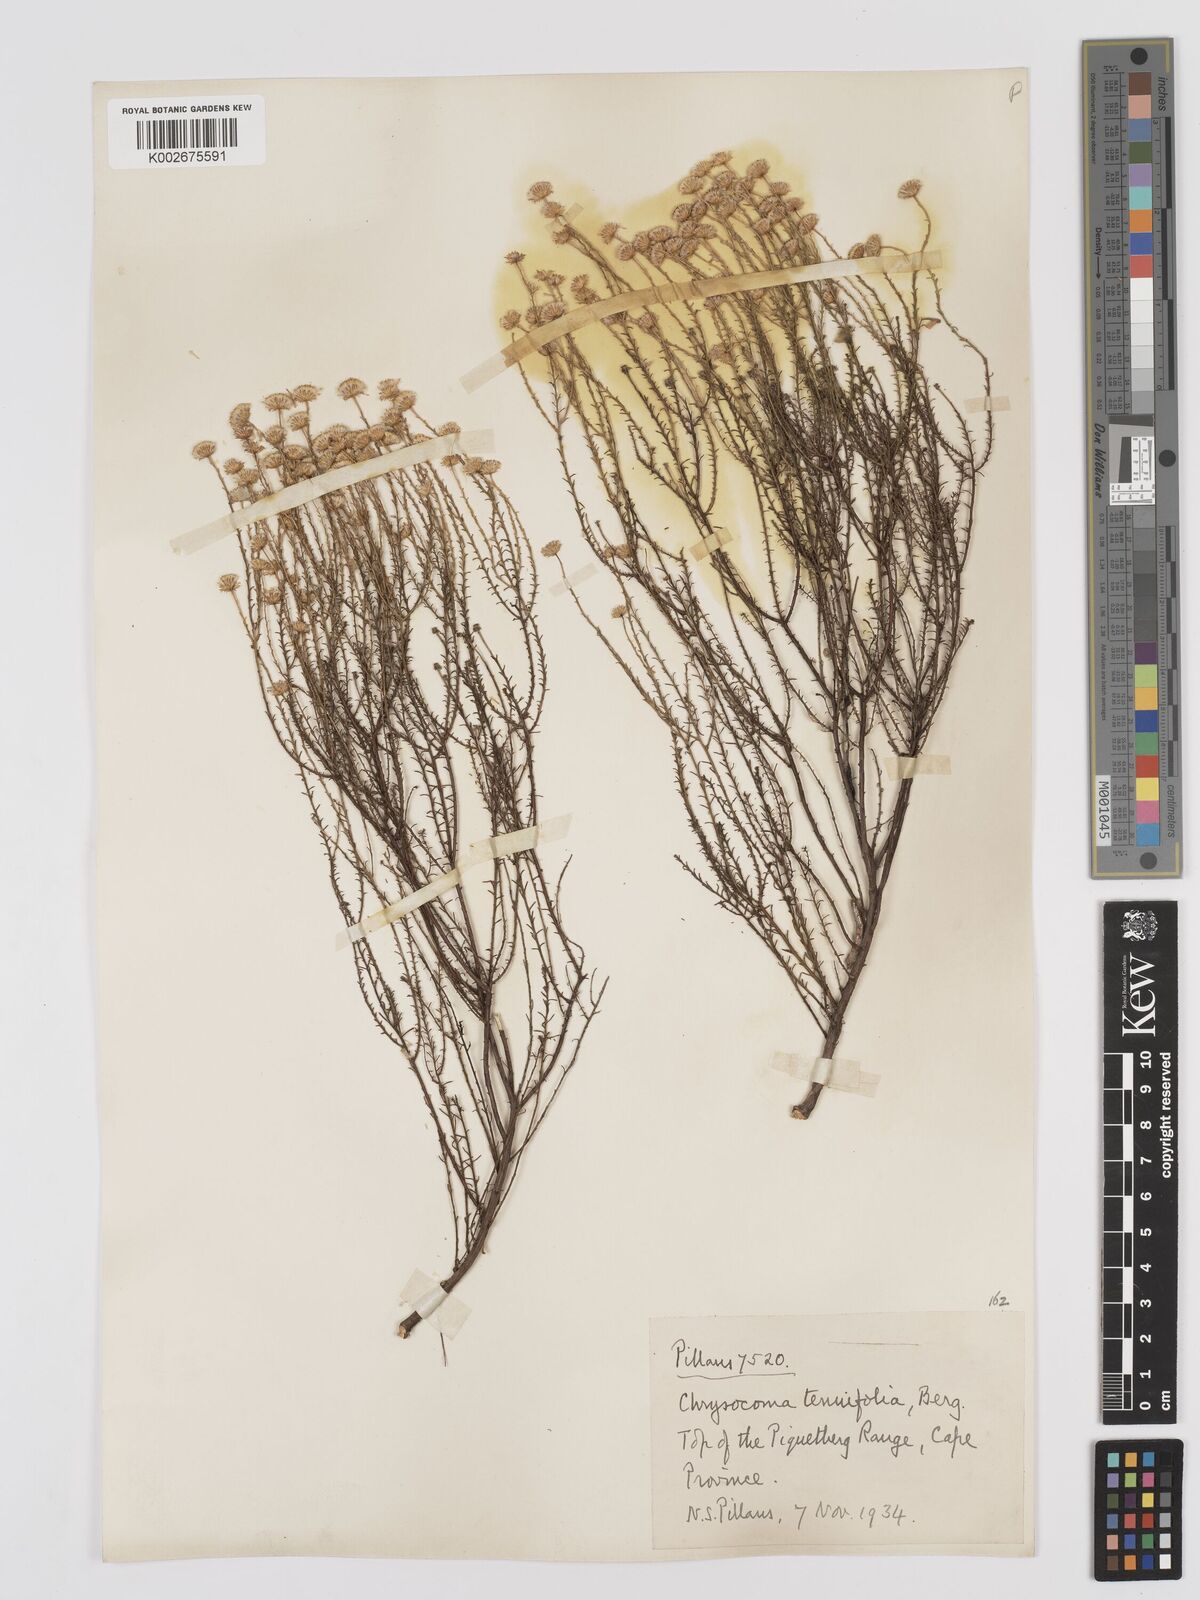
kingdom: Plantae
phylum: Tracheophyta
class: Magnoliopsida
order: Asterales
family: Asteraceae
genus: Chrysocoma
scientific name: Chrysocoma ciliata
